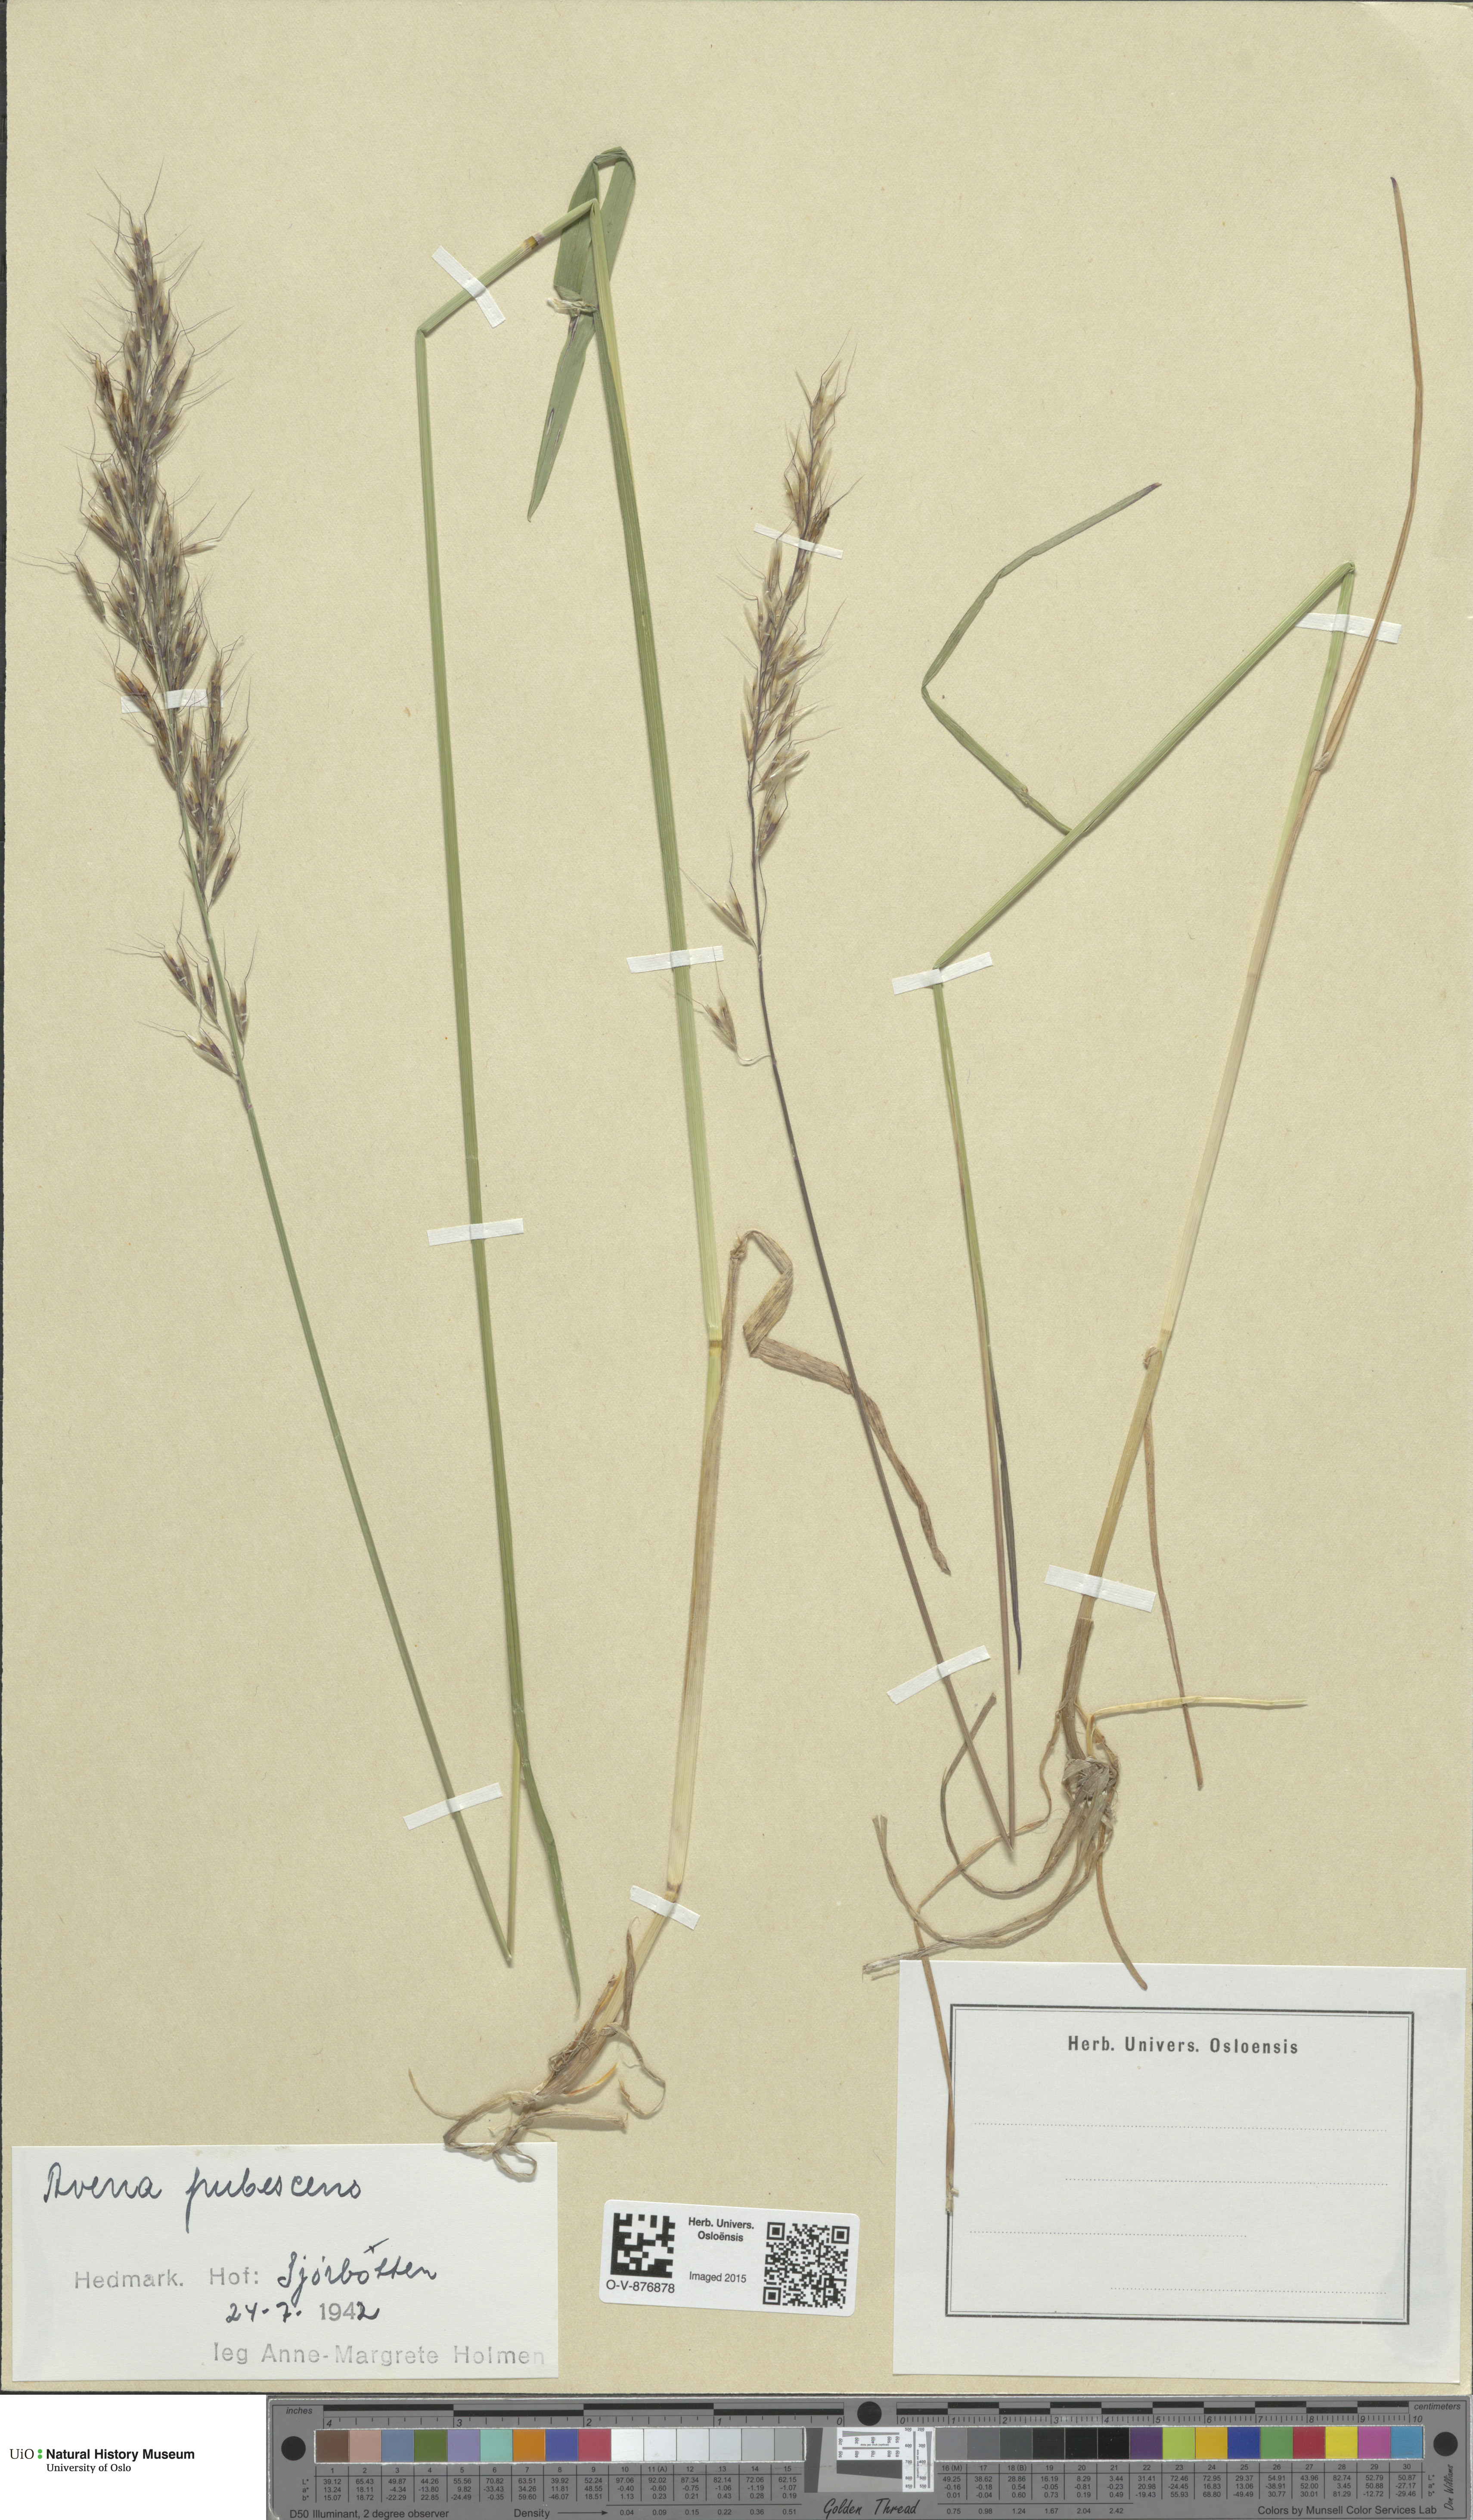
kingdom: Plantae
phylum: Tracheophyta
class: Liliopsida
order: Poales
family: Poaceae
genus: Avenula
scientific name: Avenula pubescens
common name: Downy alpine oatgrass
